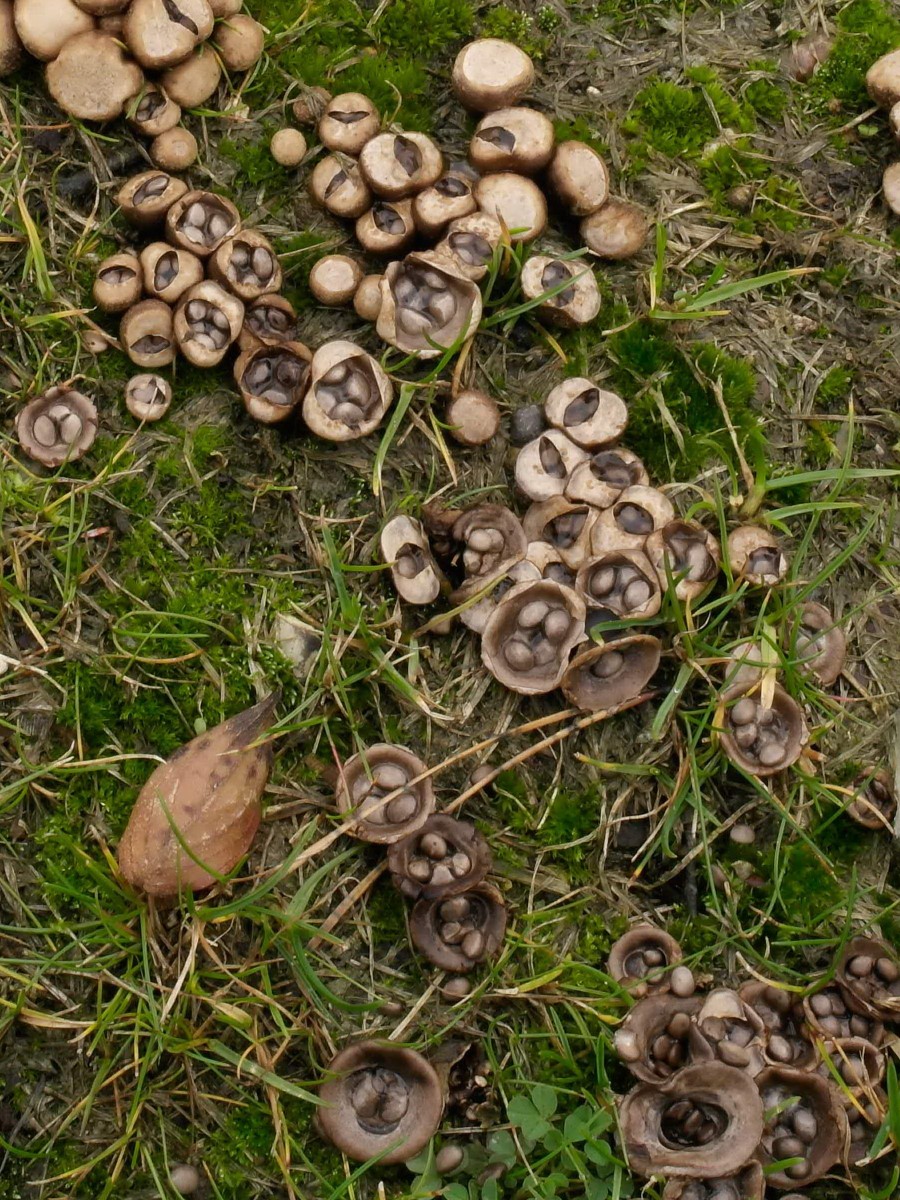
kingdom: Fungi
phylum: Basidiomycota
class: Agaricomycetes
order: Agaricales
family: Agaricaceae
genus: Cyathus
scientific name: Cyathus olla
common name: klokke-redesvamp
